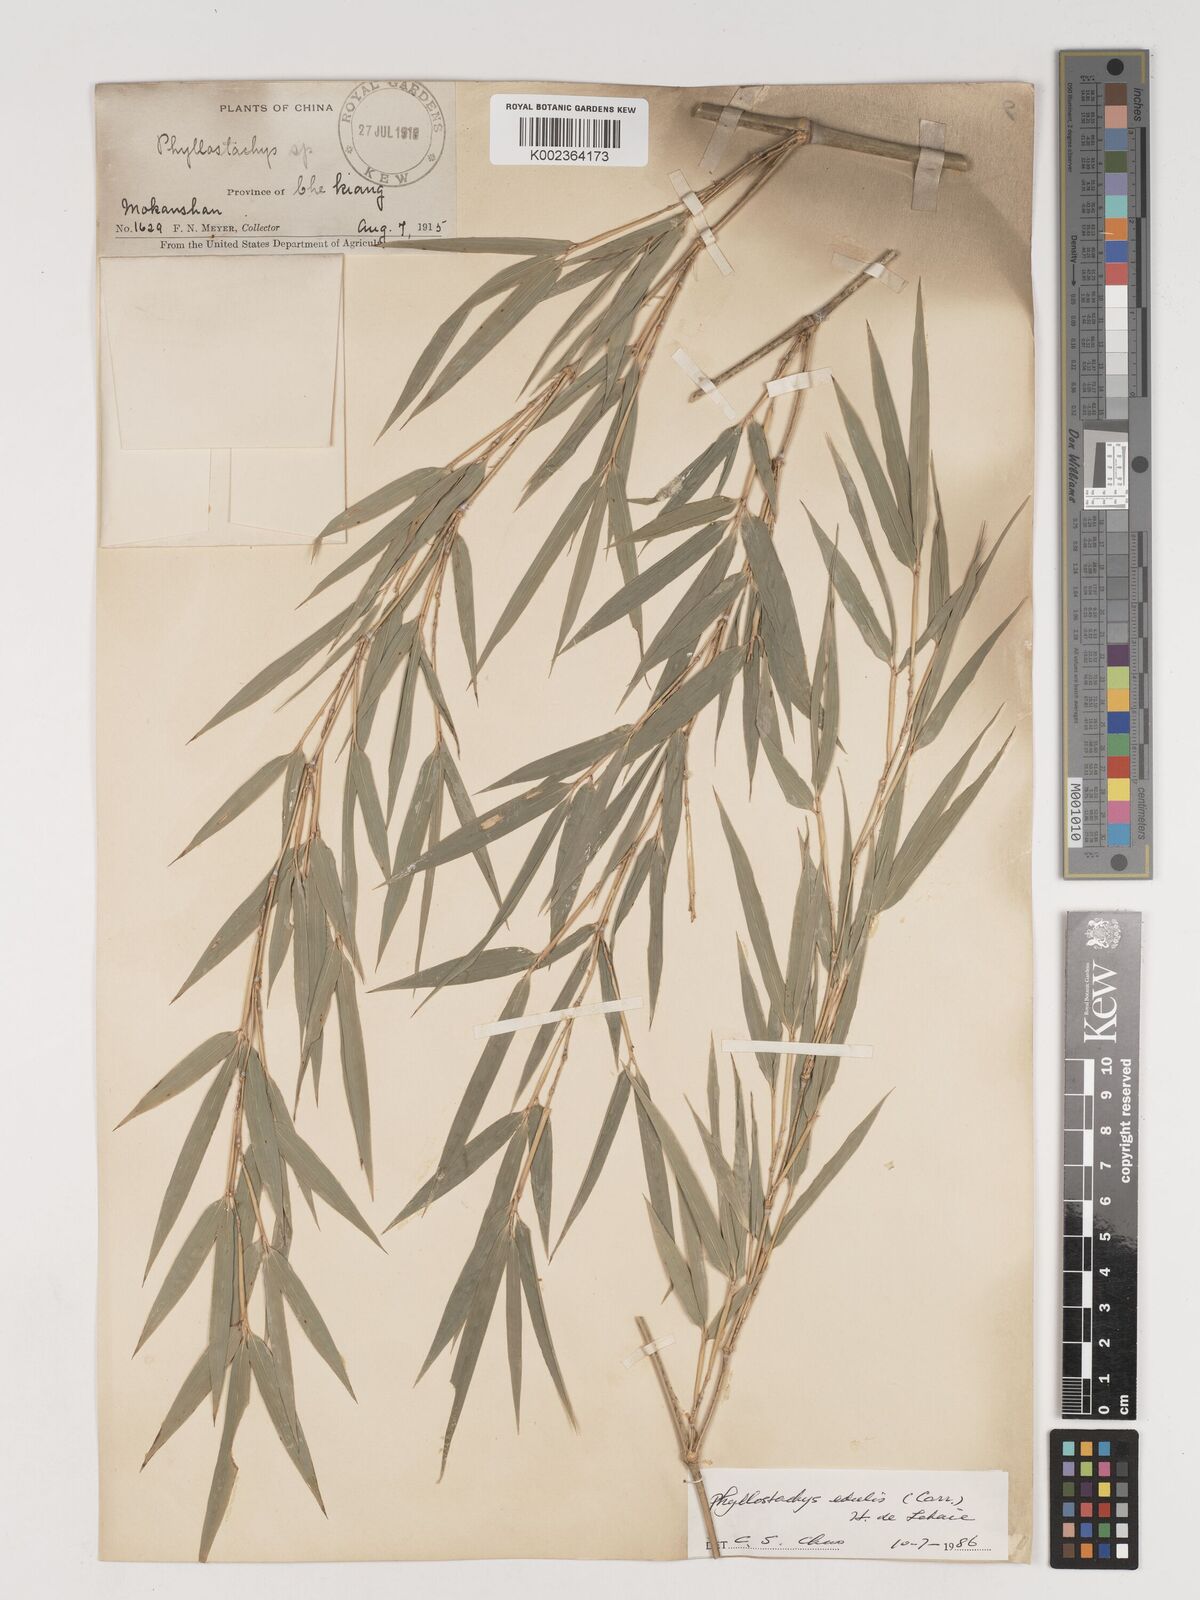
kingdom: Plantae
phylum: Tracheophyta
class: Liliopsida
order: Poales
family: Poaceae
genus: Phyllostachys
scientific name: Phyllostachys nidularia
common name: Broom bamboo
